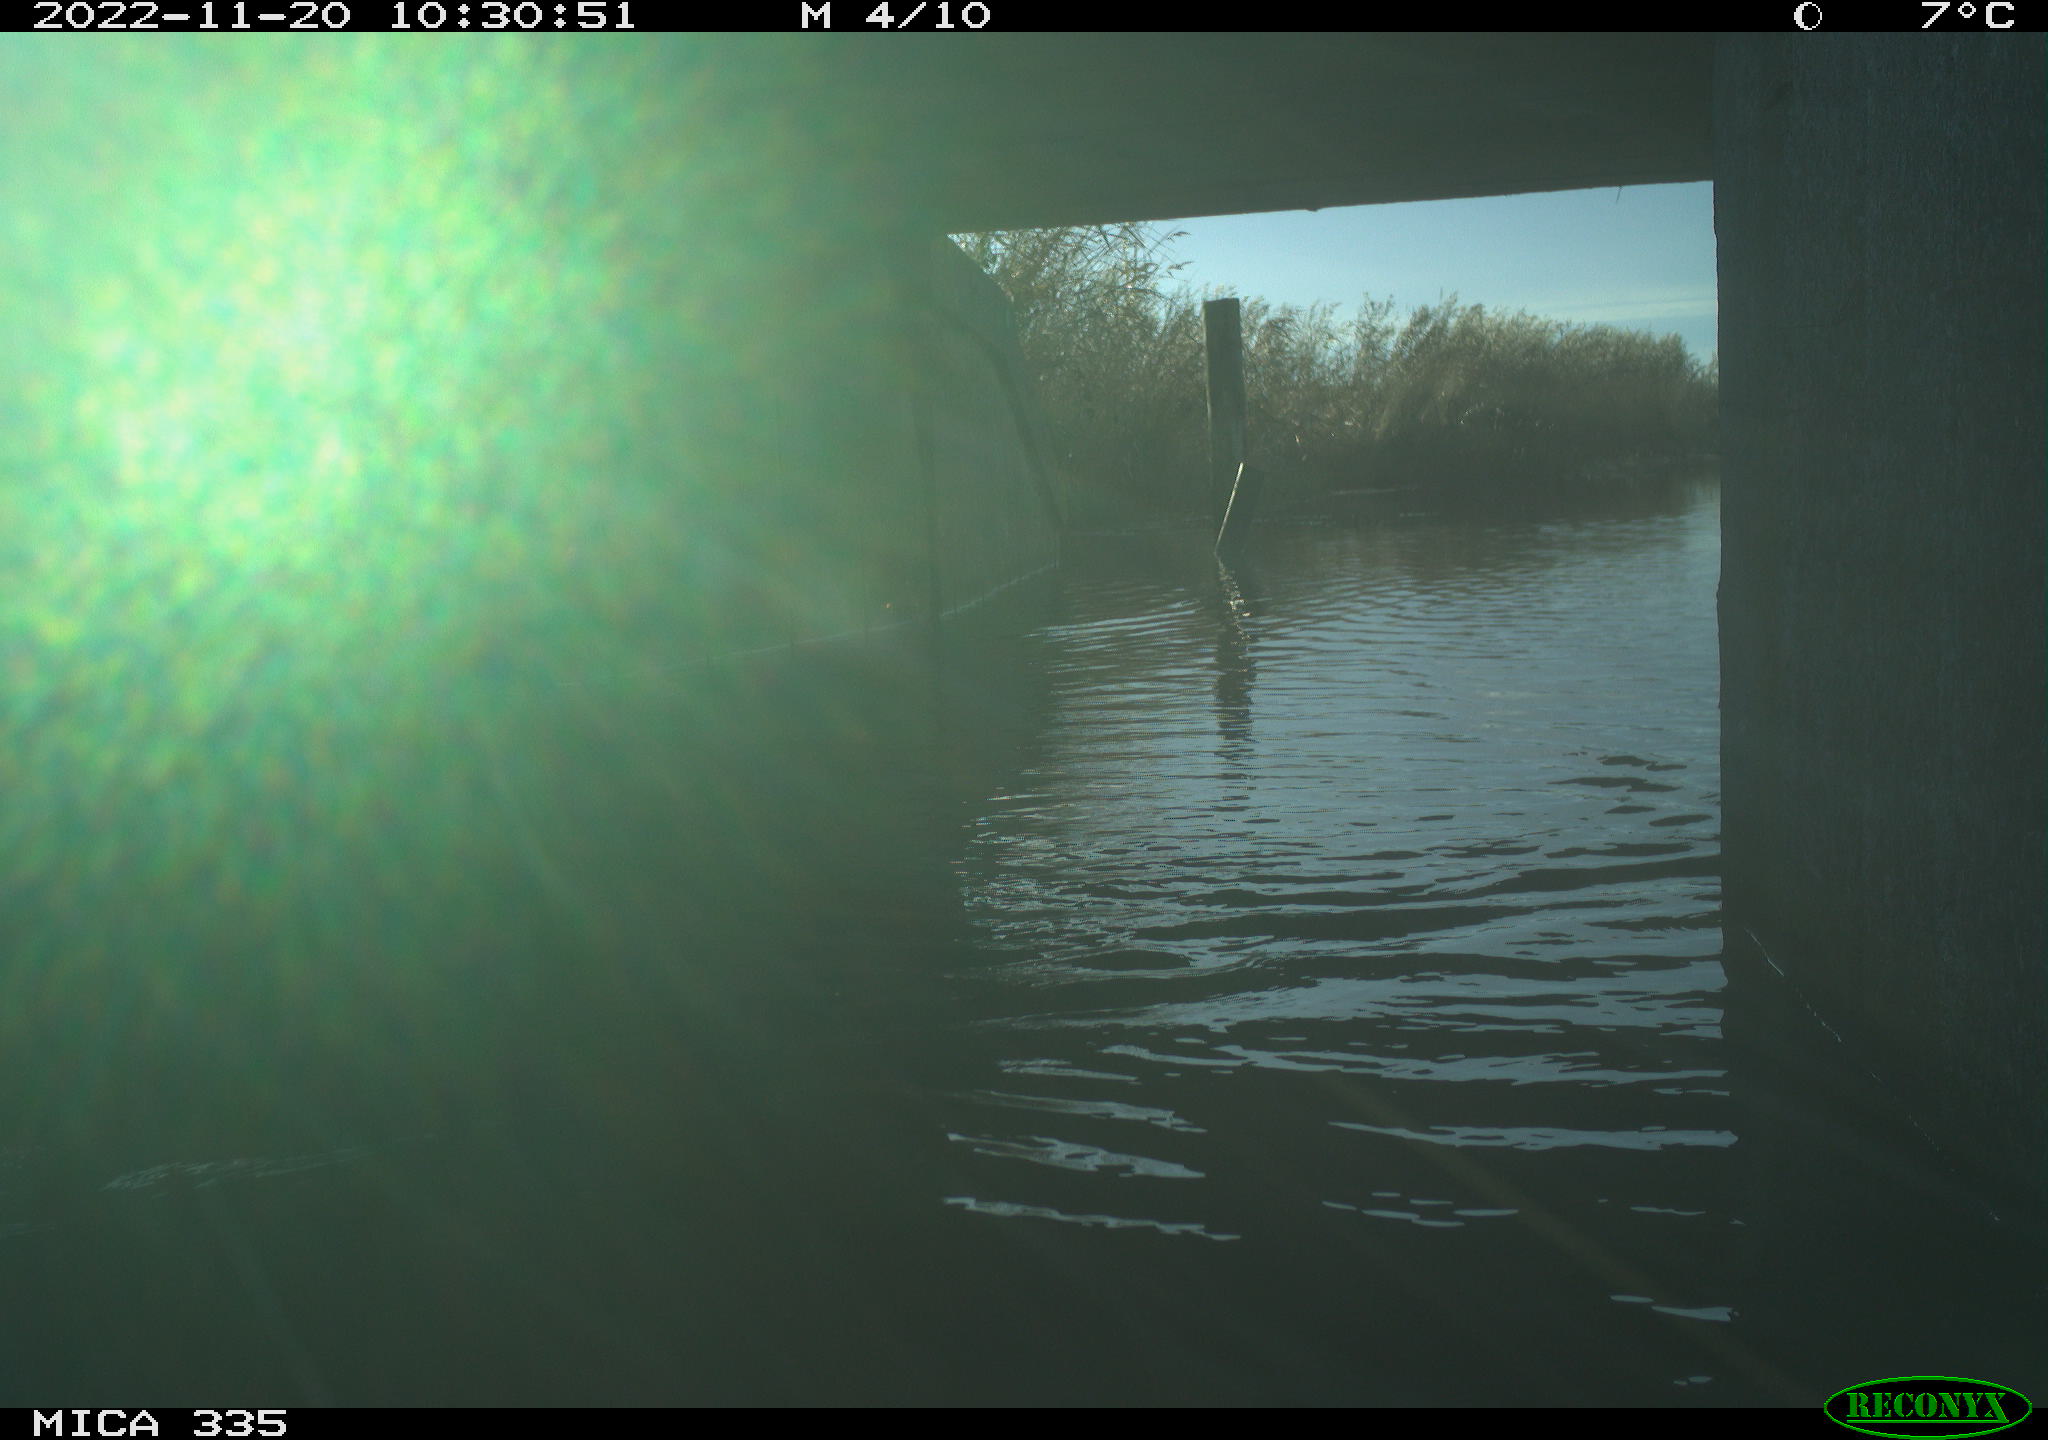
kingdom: Animalia
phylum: Chordata
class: Aves
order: Anseriformes
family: Anatidae
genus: Anas
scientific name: Anas platyrhynchos
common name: Mallard
